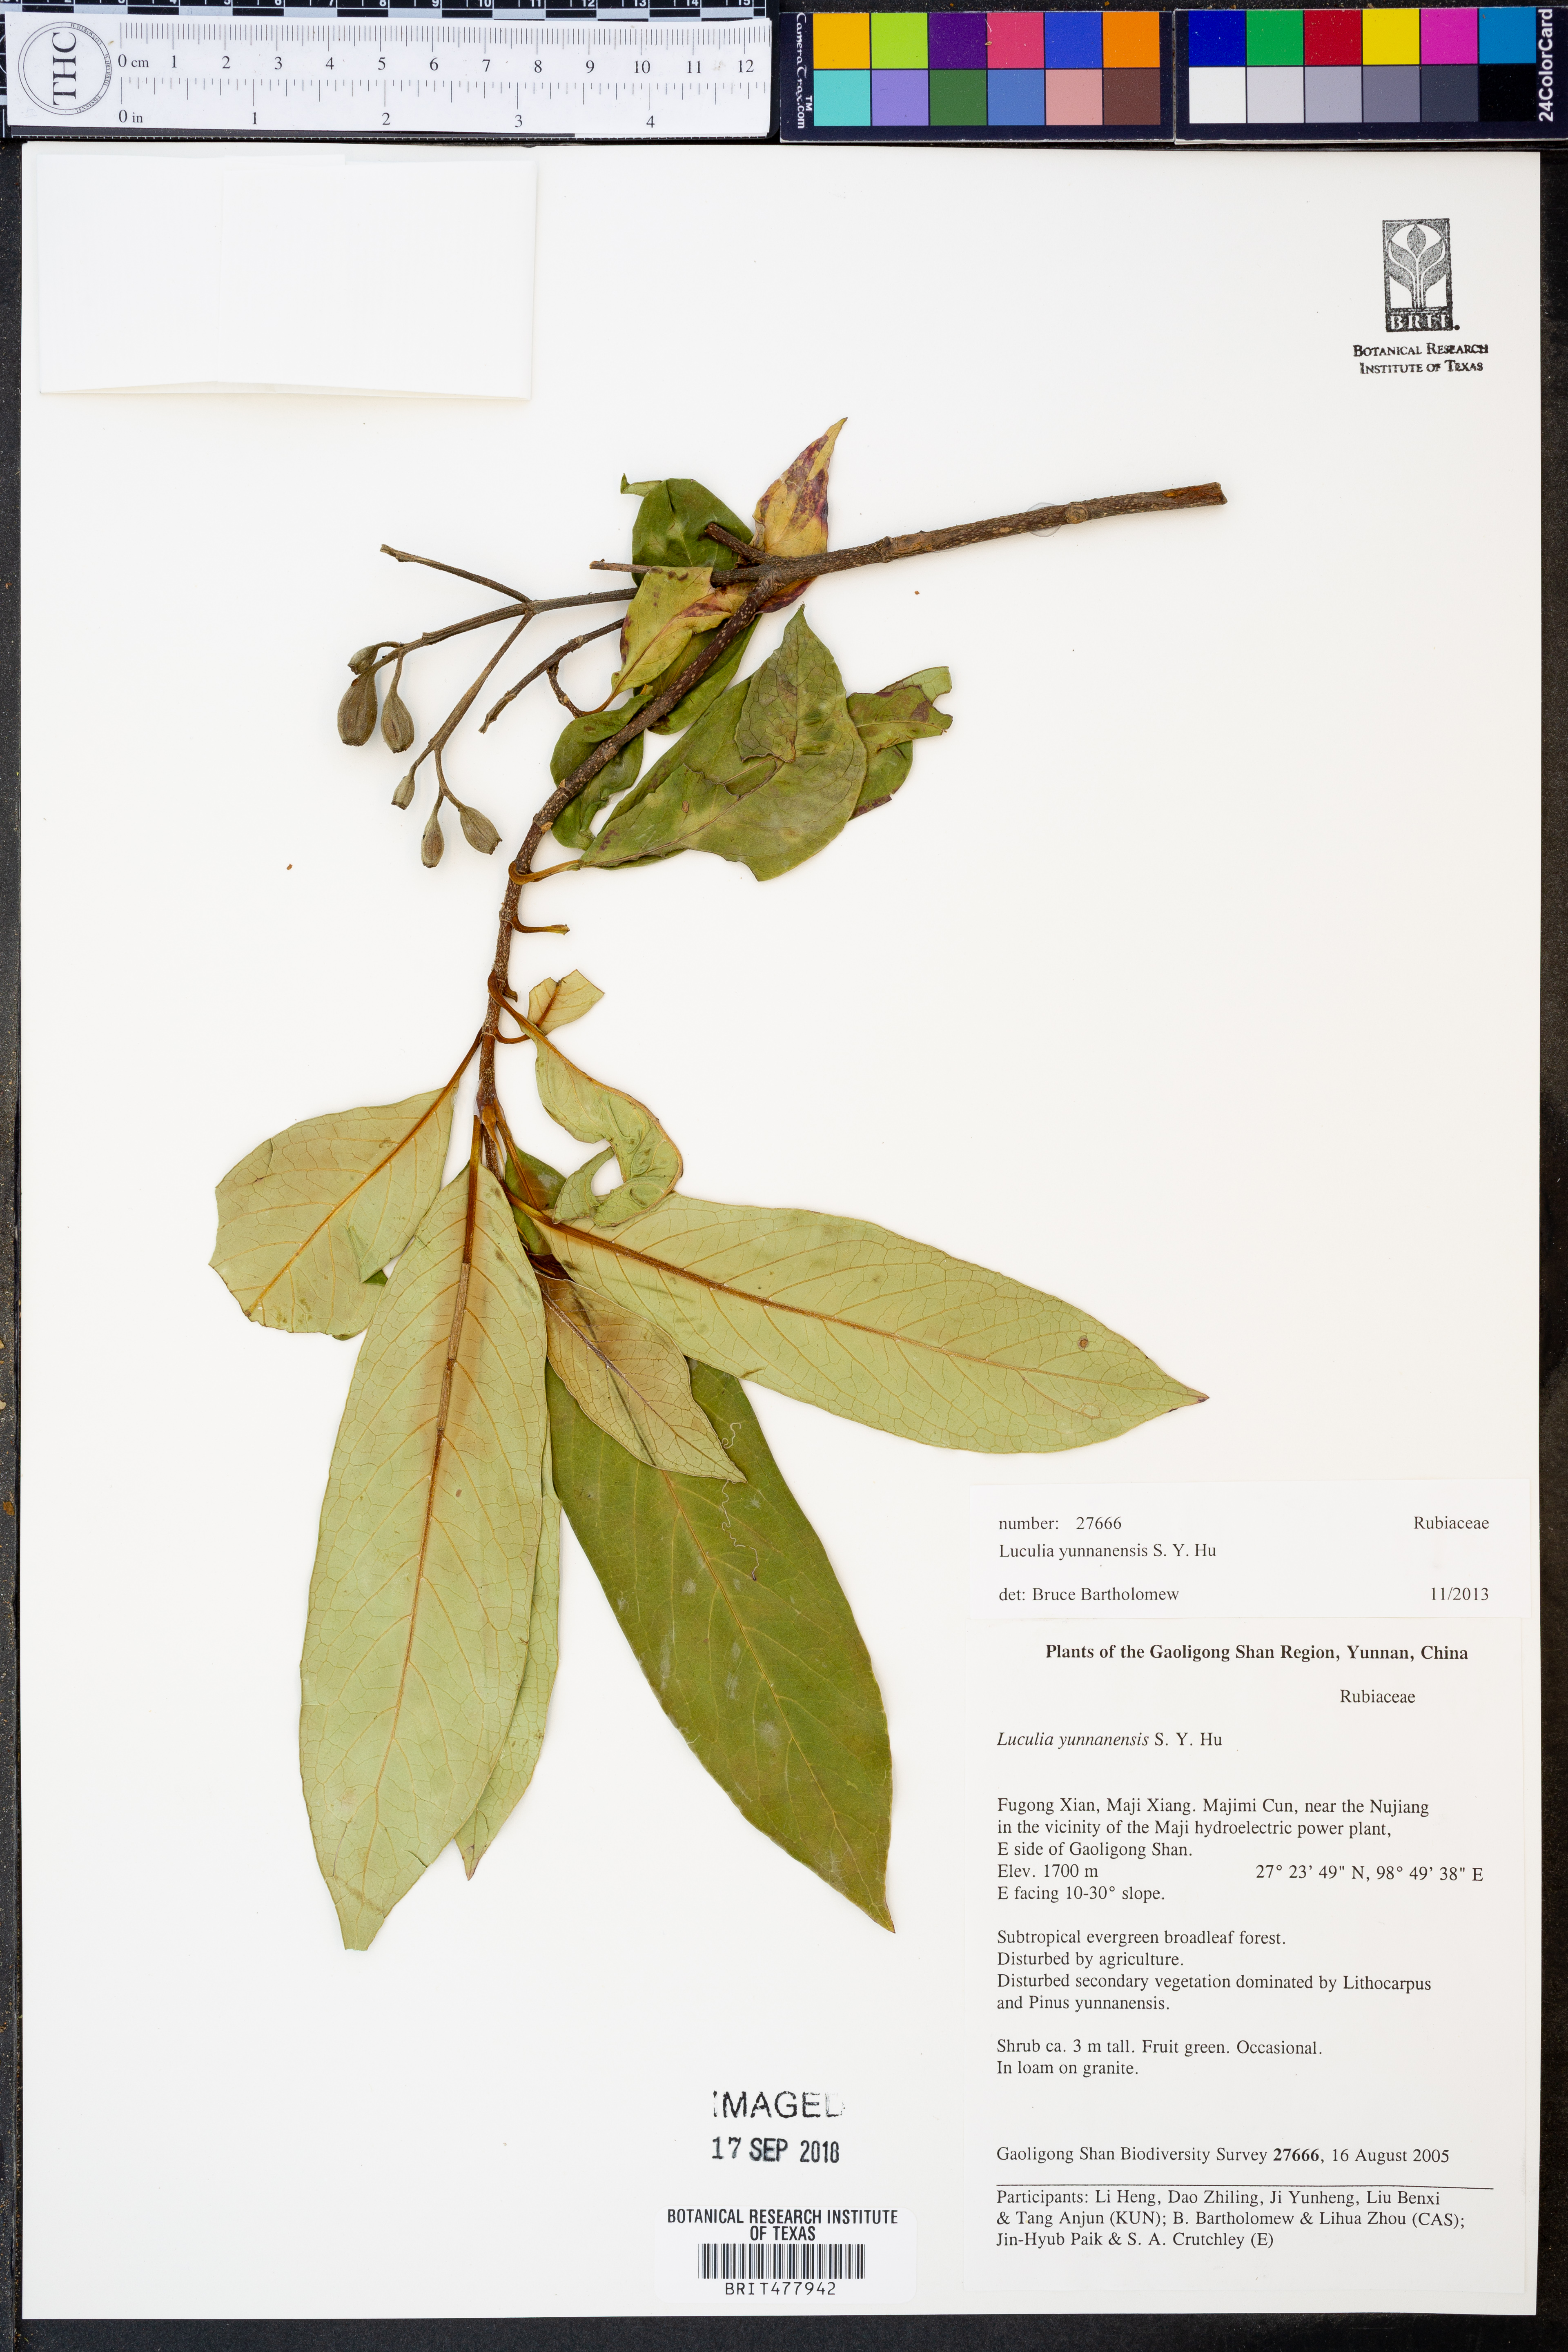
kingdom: Plantae
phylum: Tracheophyta
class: Magnoliopsida
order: Gentianales
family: Rubiaceae
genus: Luculia
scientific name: Luculia yunnanensis
